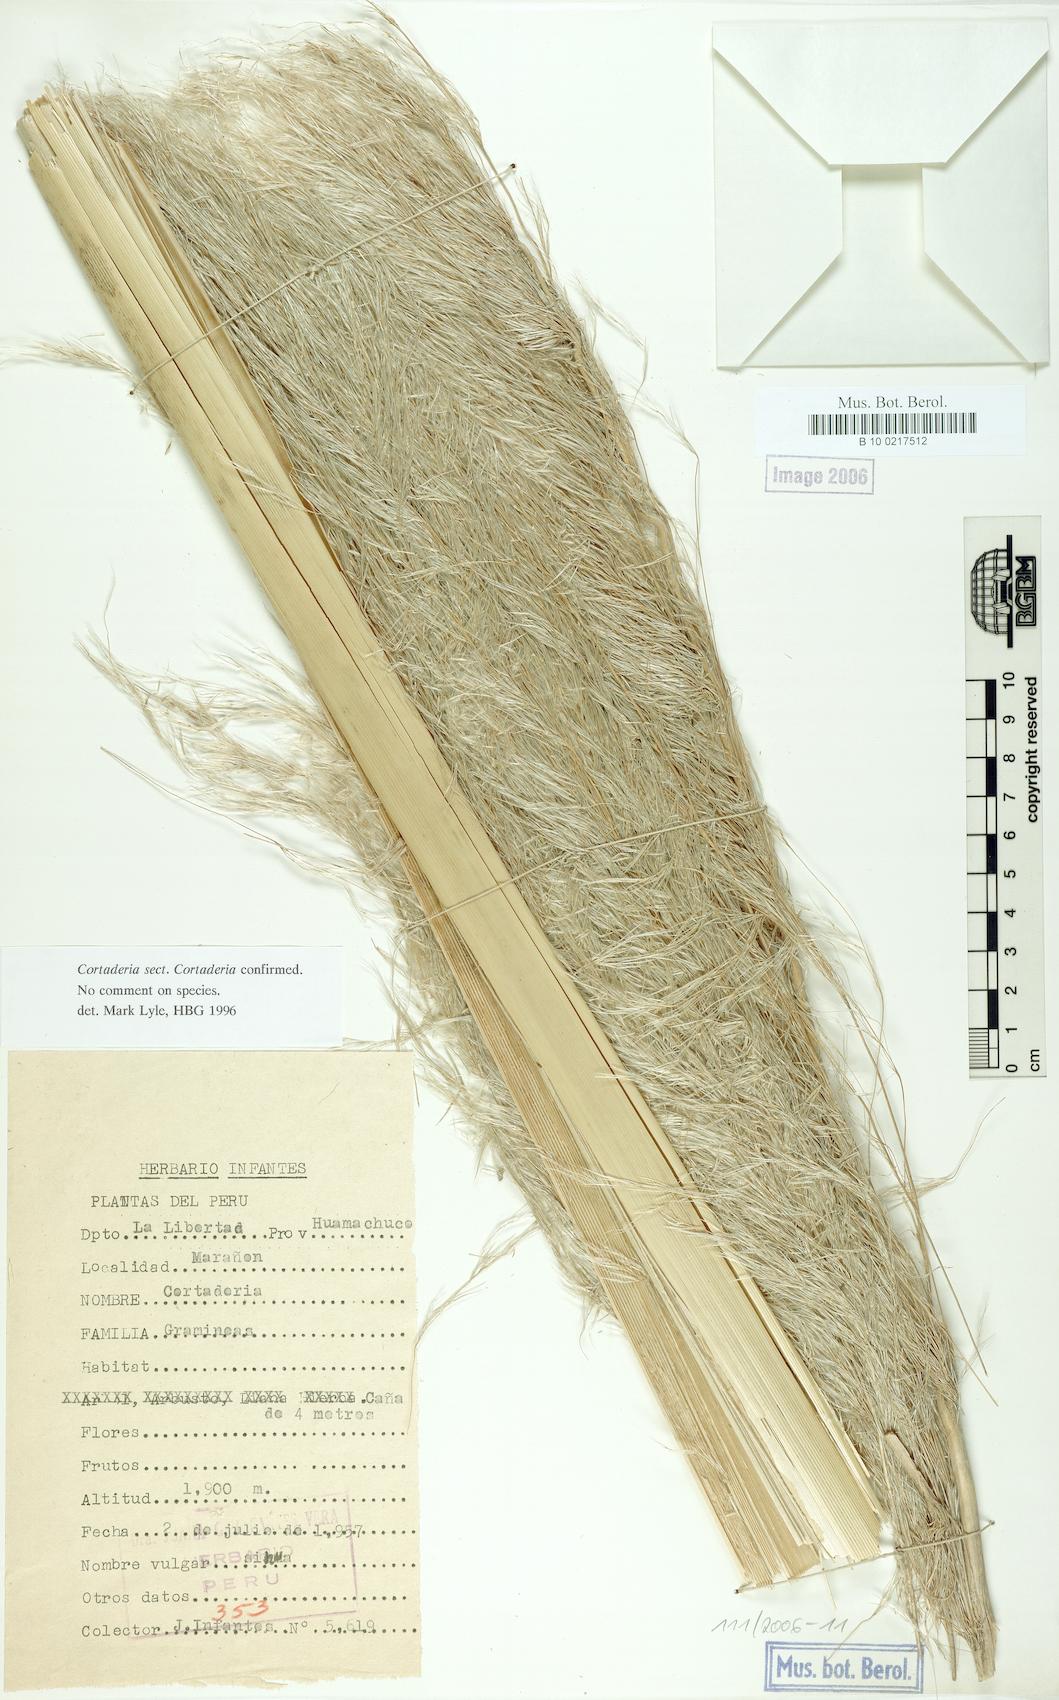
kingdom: Plantae
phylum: Tracheophyta
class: Liliopsida
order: Poales
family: Poaceae
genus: Cortaderia
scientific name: Cortaderia jubata
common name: Purple pampas grass
